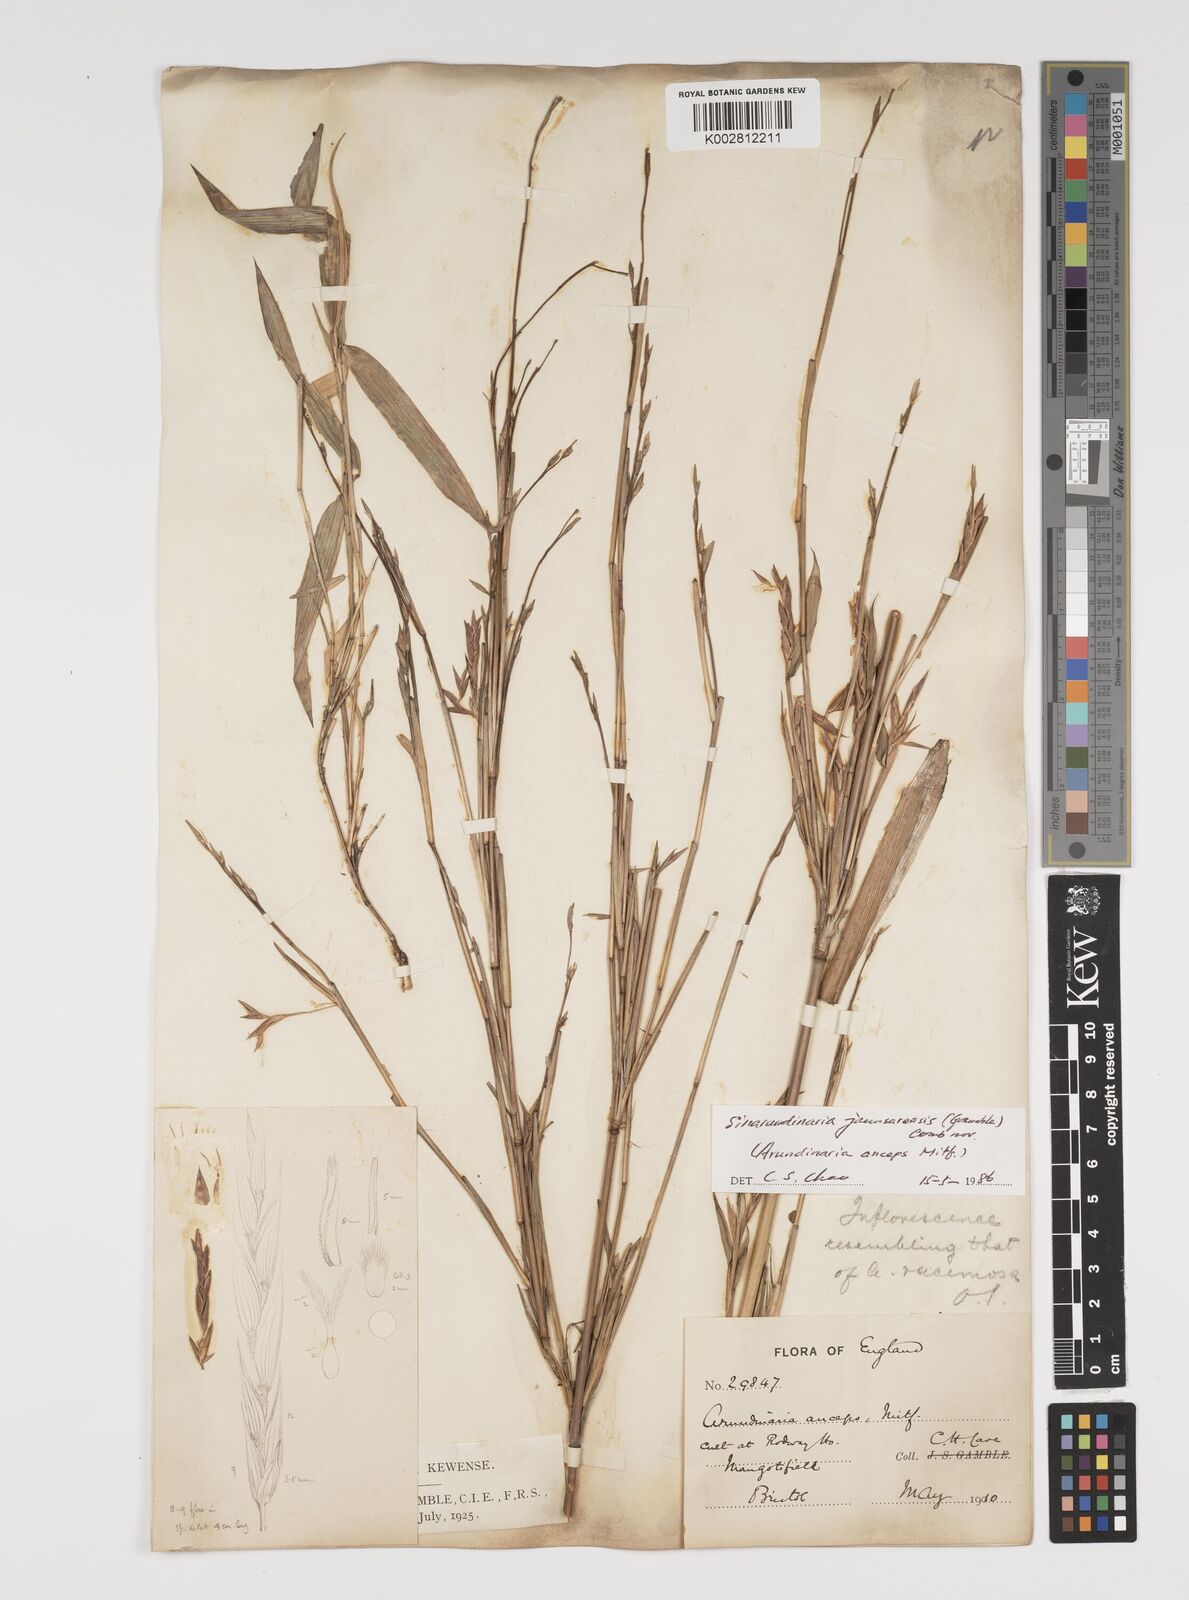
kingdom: Plantae
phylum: Tracheophyta
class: Liliopsida
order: Poales
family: Poaceae
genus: Yushania
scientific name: Yushania anceps
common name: Indian fountain-bamboo
